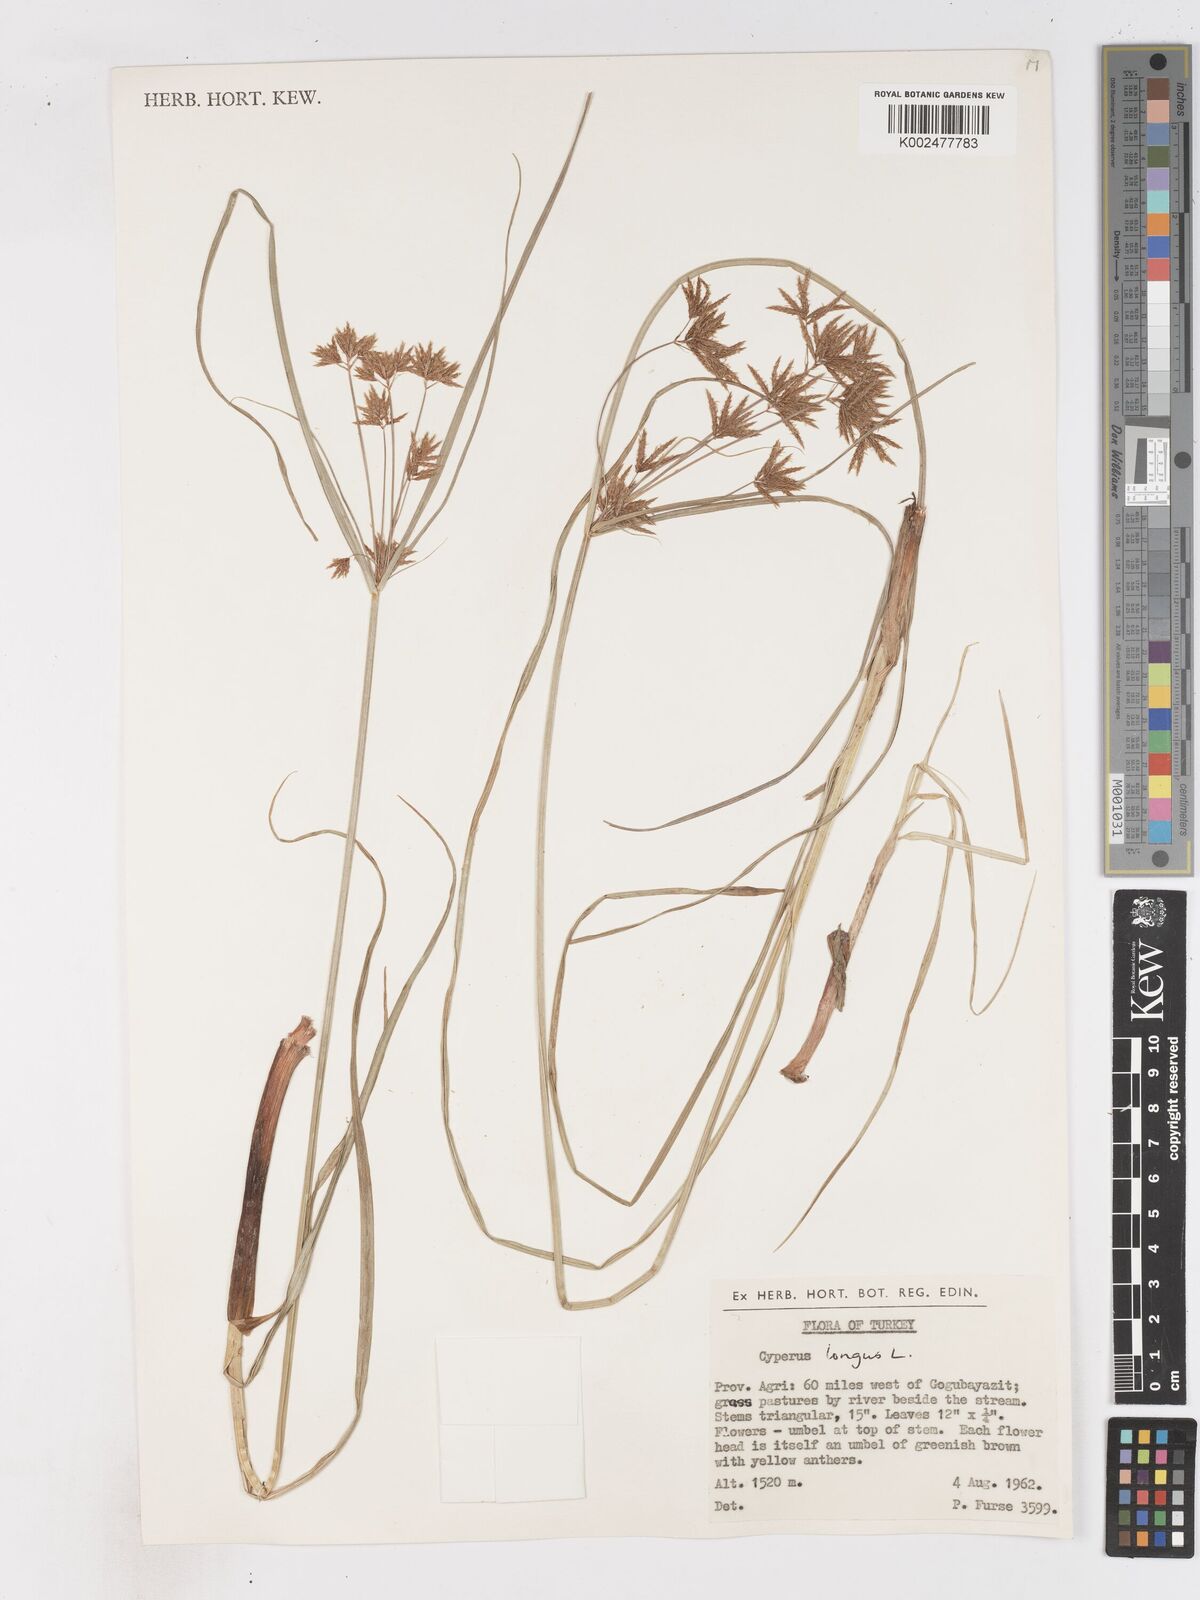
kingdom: Plantae
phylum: Tracheophyta
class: Liliopsida
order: Poales
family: Cyperaceae
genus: Cyperus
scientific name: Cyperus longus
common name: Galingale
